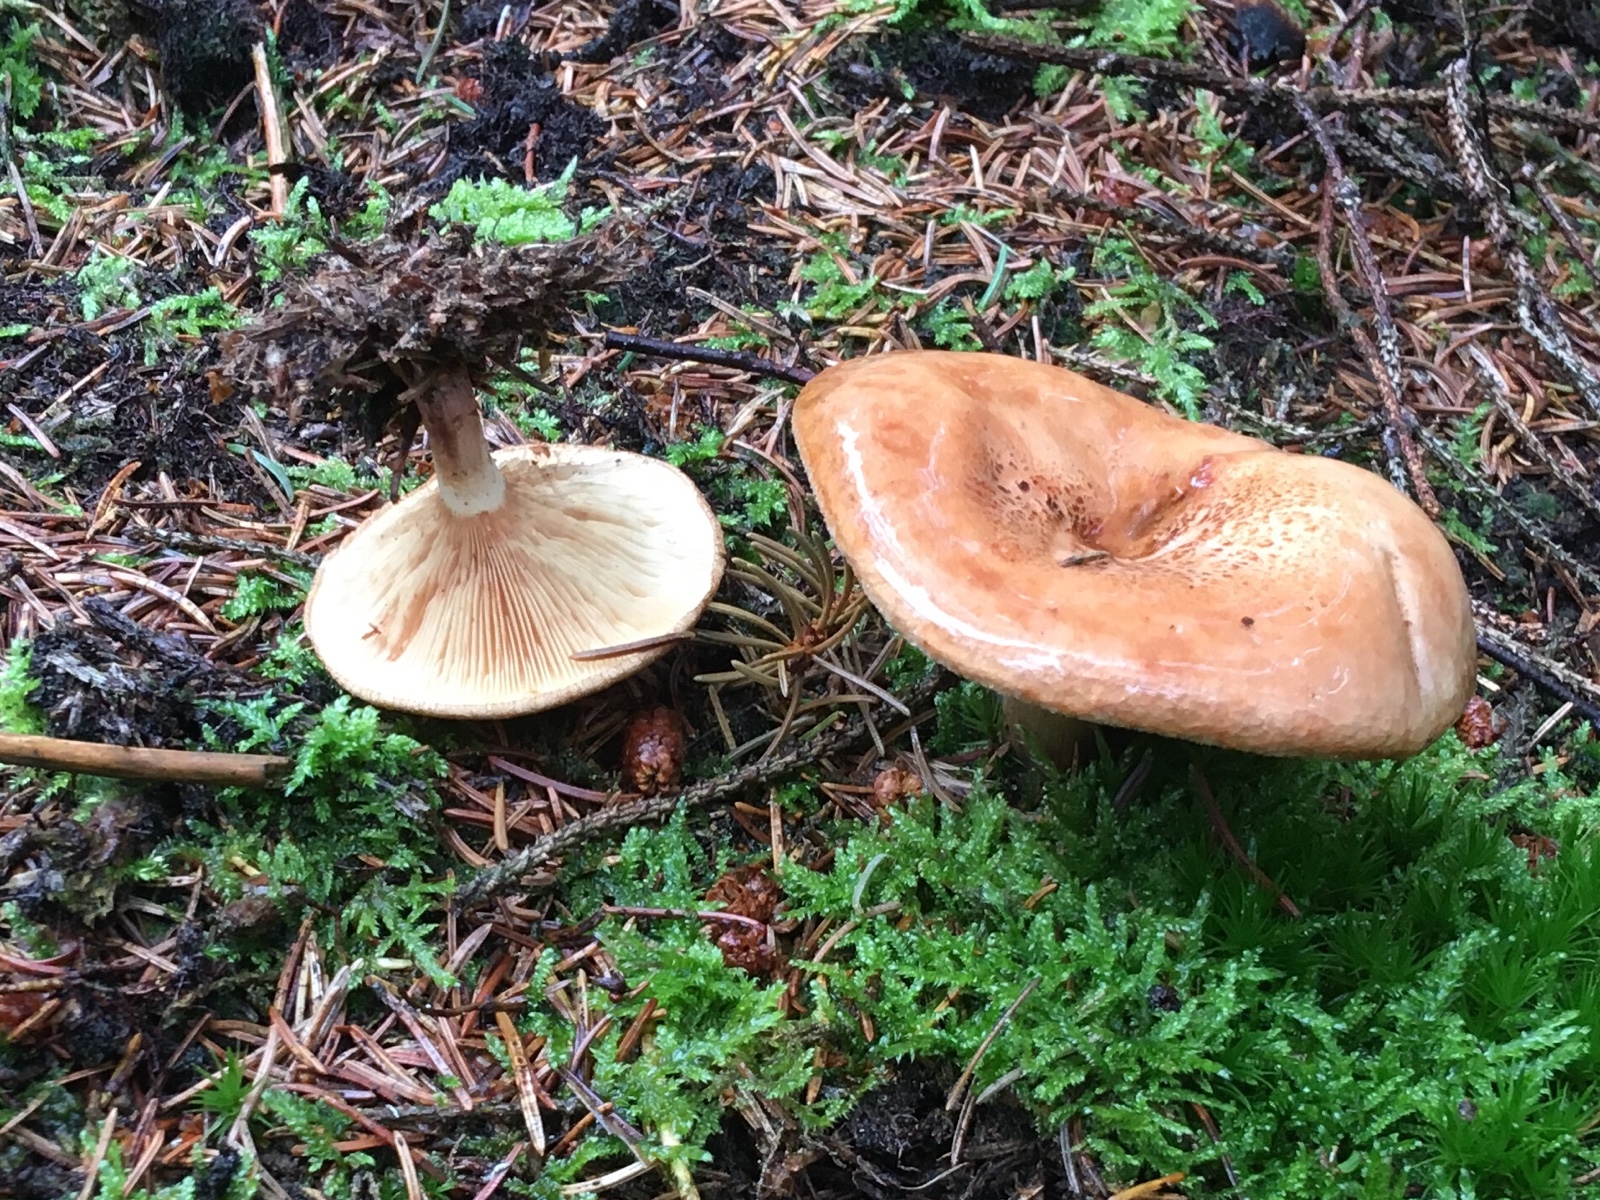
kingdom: Fungi
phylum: Basidiomycota
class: Agaricomycetes
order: Boletales
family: Paxillaceae
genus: Paxillus
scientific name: Paxillus involutus
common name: almindelig netbladhat
